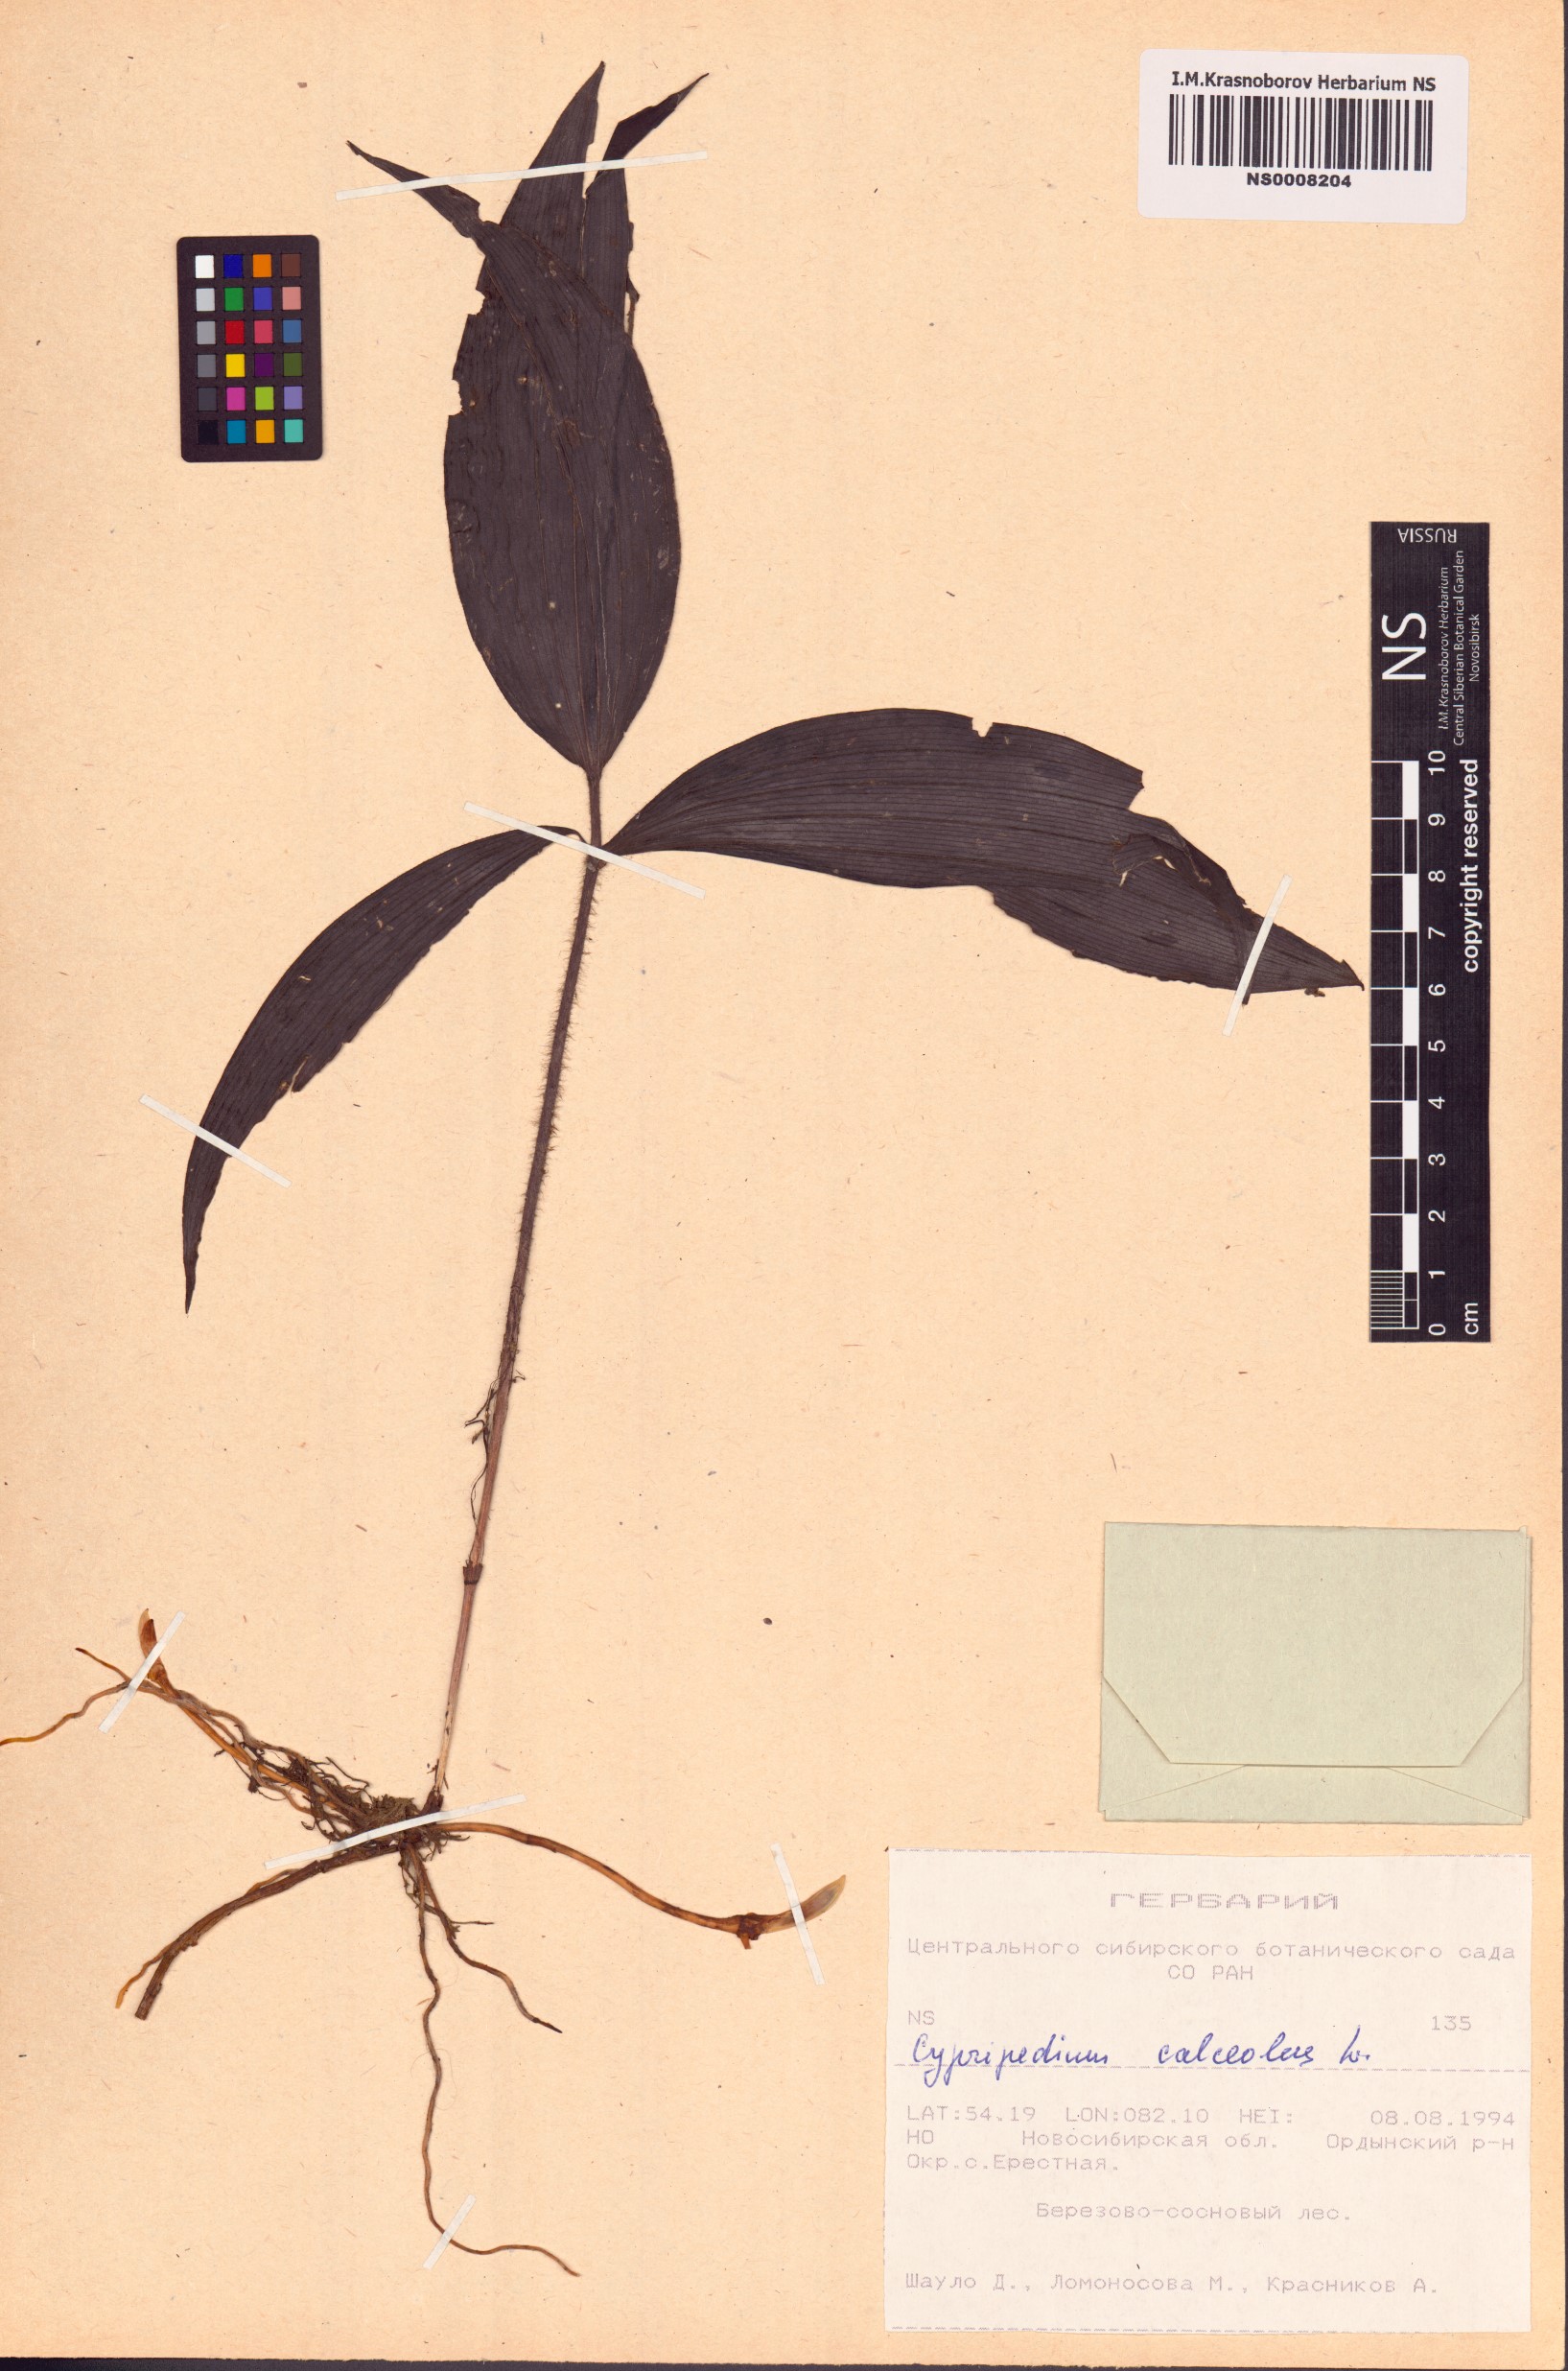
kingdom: Plantae
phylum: Tracheophyta
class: Liliopsida
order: Asparagales
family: Orchidaceae
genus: Cypripedium
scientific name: Cypripedium calceolus
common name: Lady's-slipper
